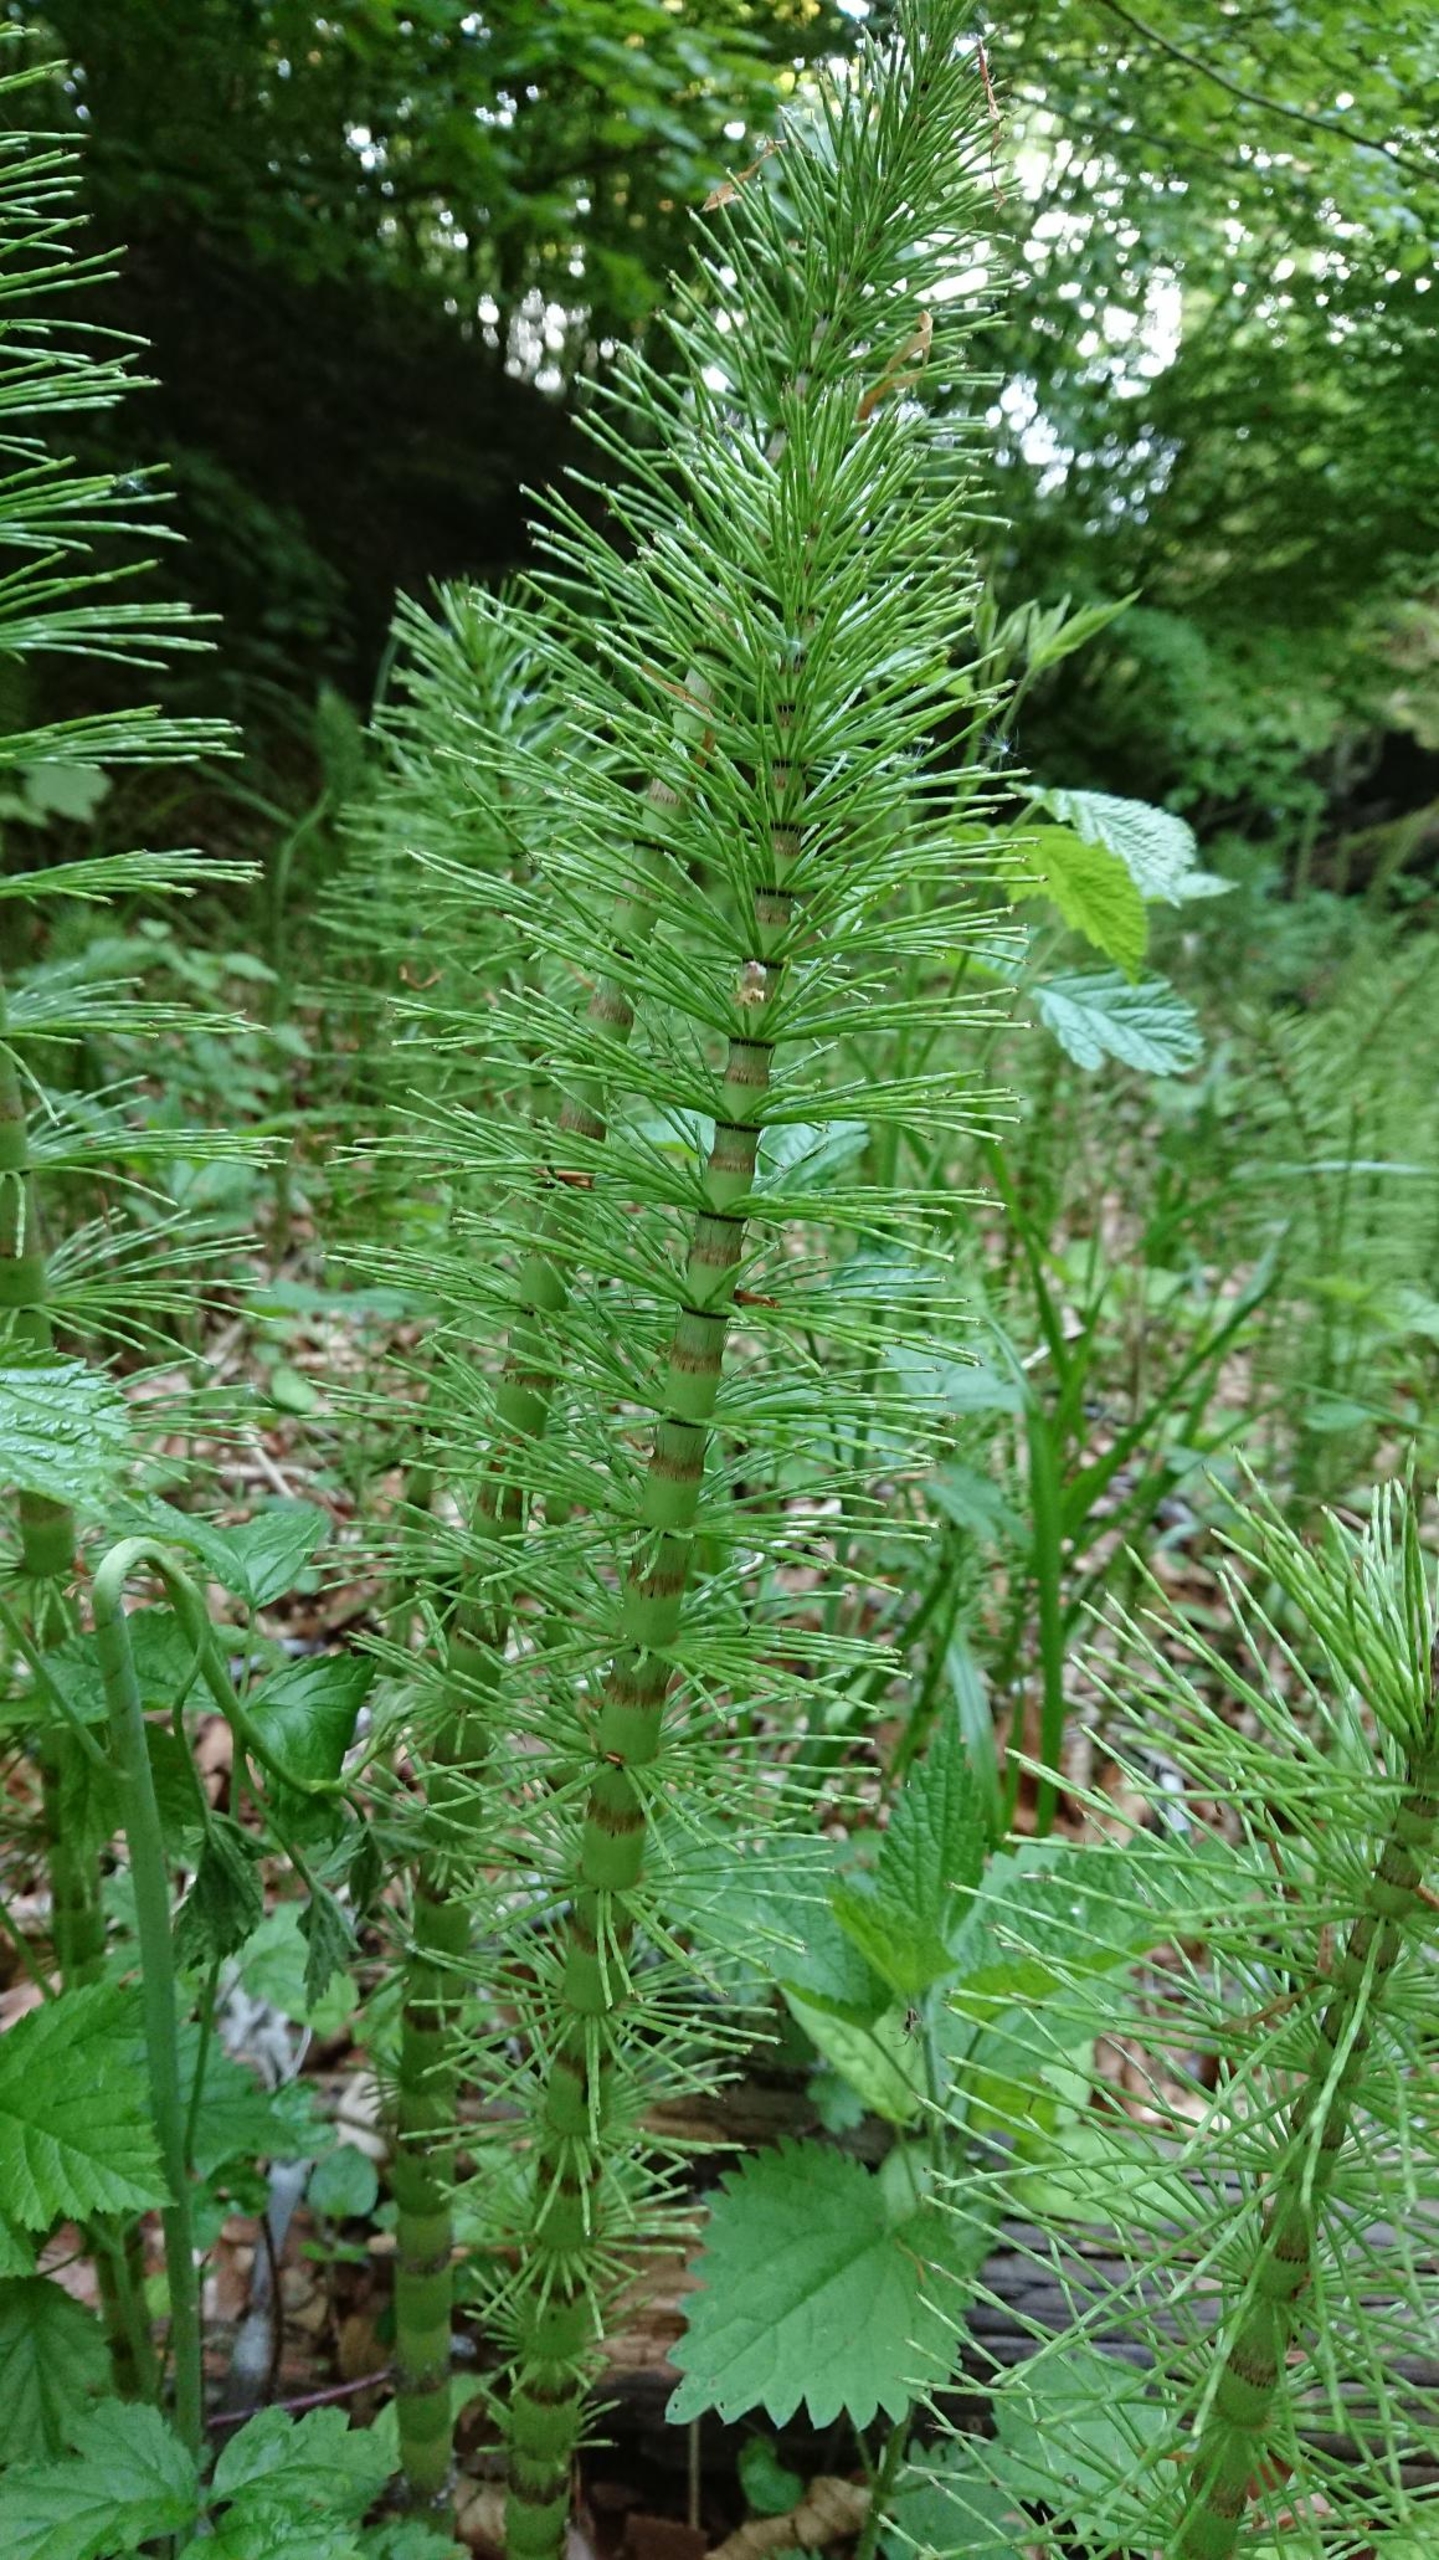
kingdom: Plantae
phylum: Tracheophyta
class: Polypodiopsida
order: Equisetales
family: Equisetaceae
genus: Equisetum
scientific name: Equisetum telmateia
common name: Elfenbens-padderok
